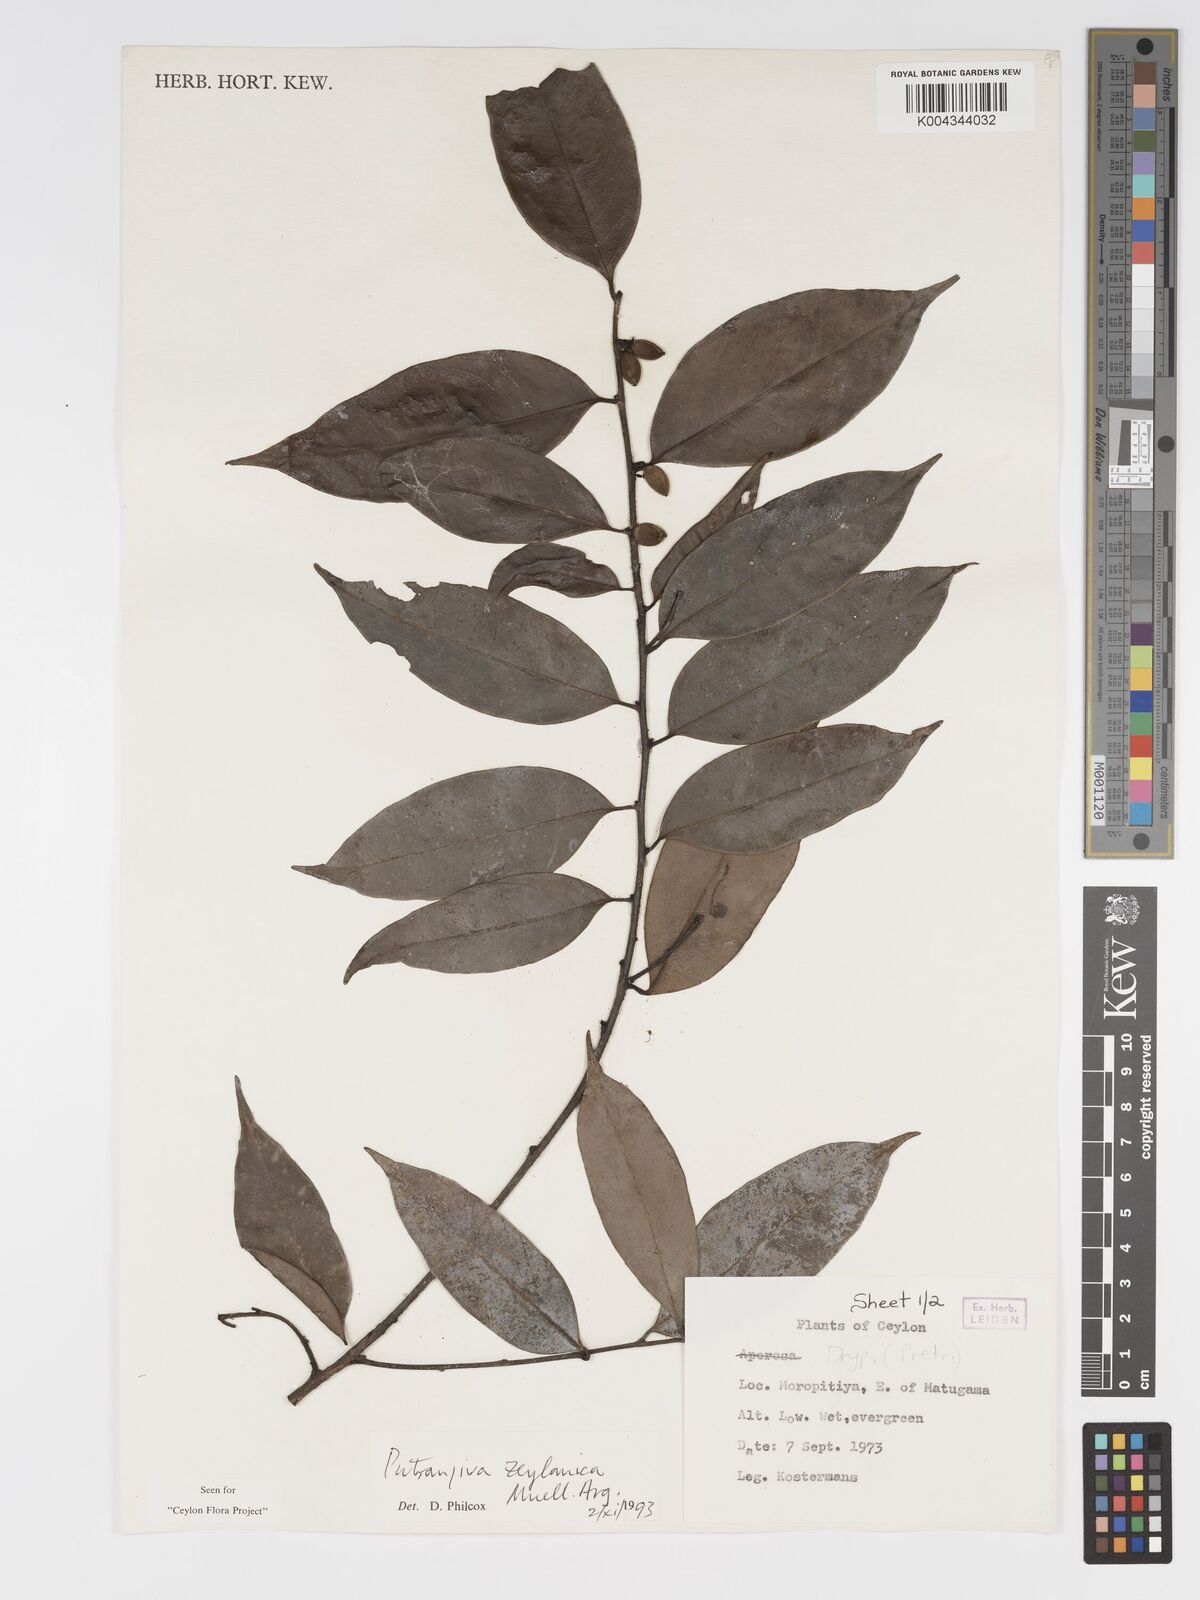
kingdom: Plantae
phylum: Tracheophyta
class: Magnoliopsida
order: Malpighiales
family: Putranjivaceae
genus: Putranjiva
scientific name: Putranjiva zeylanica
